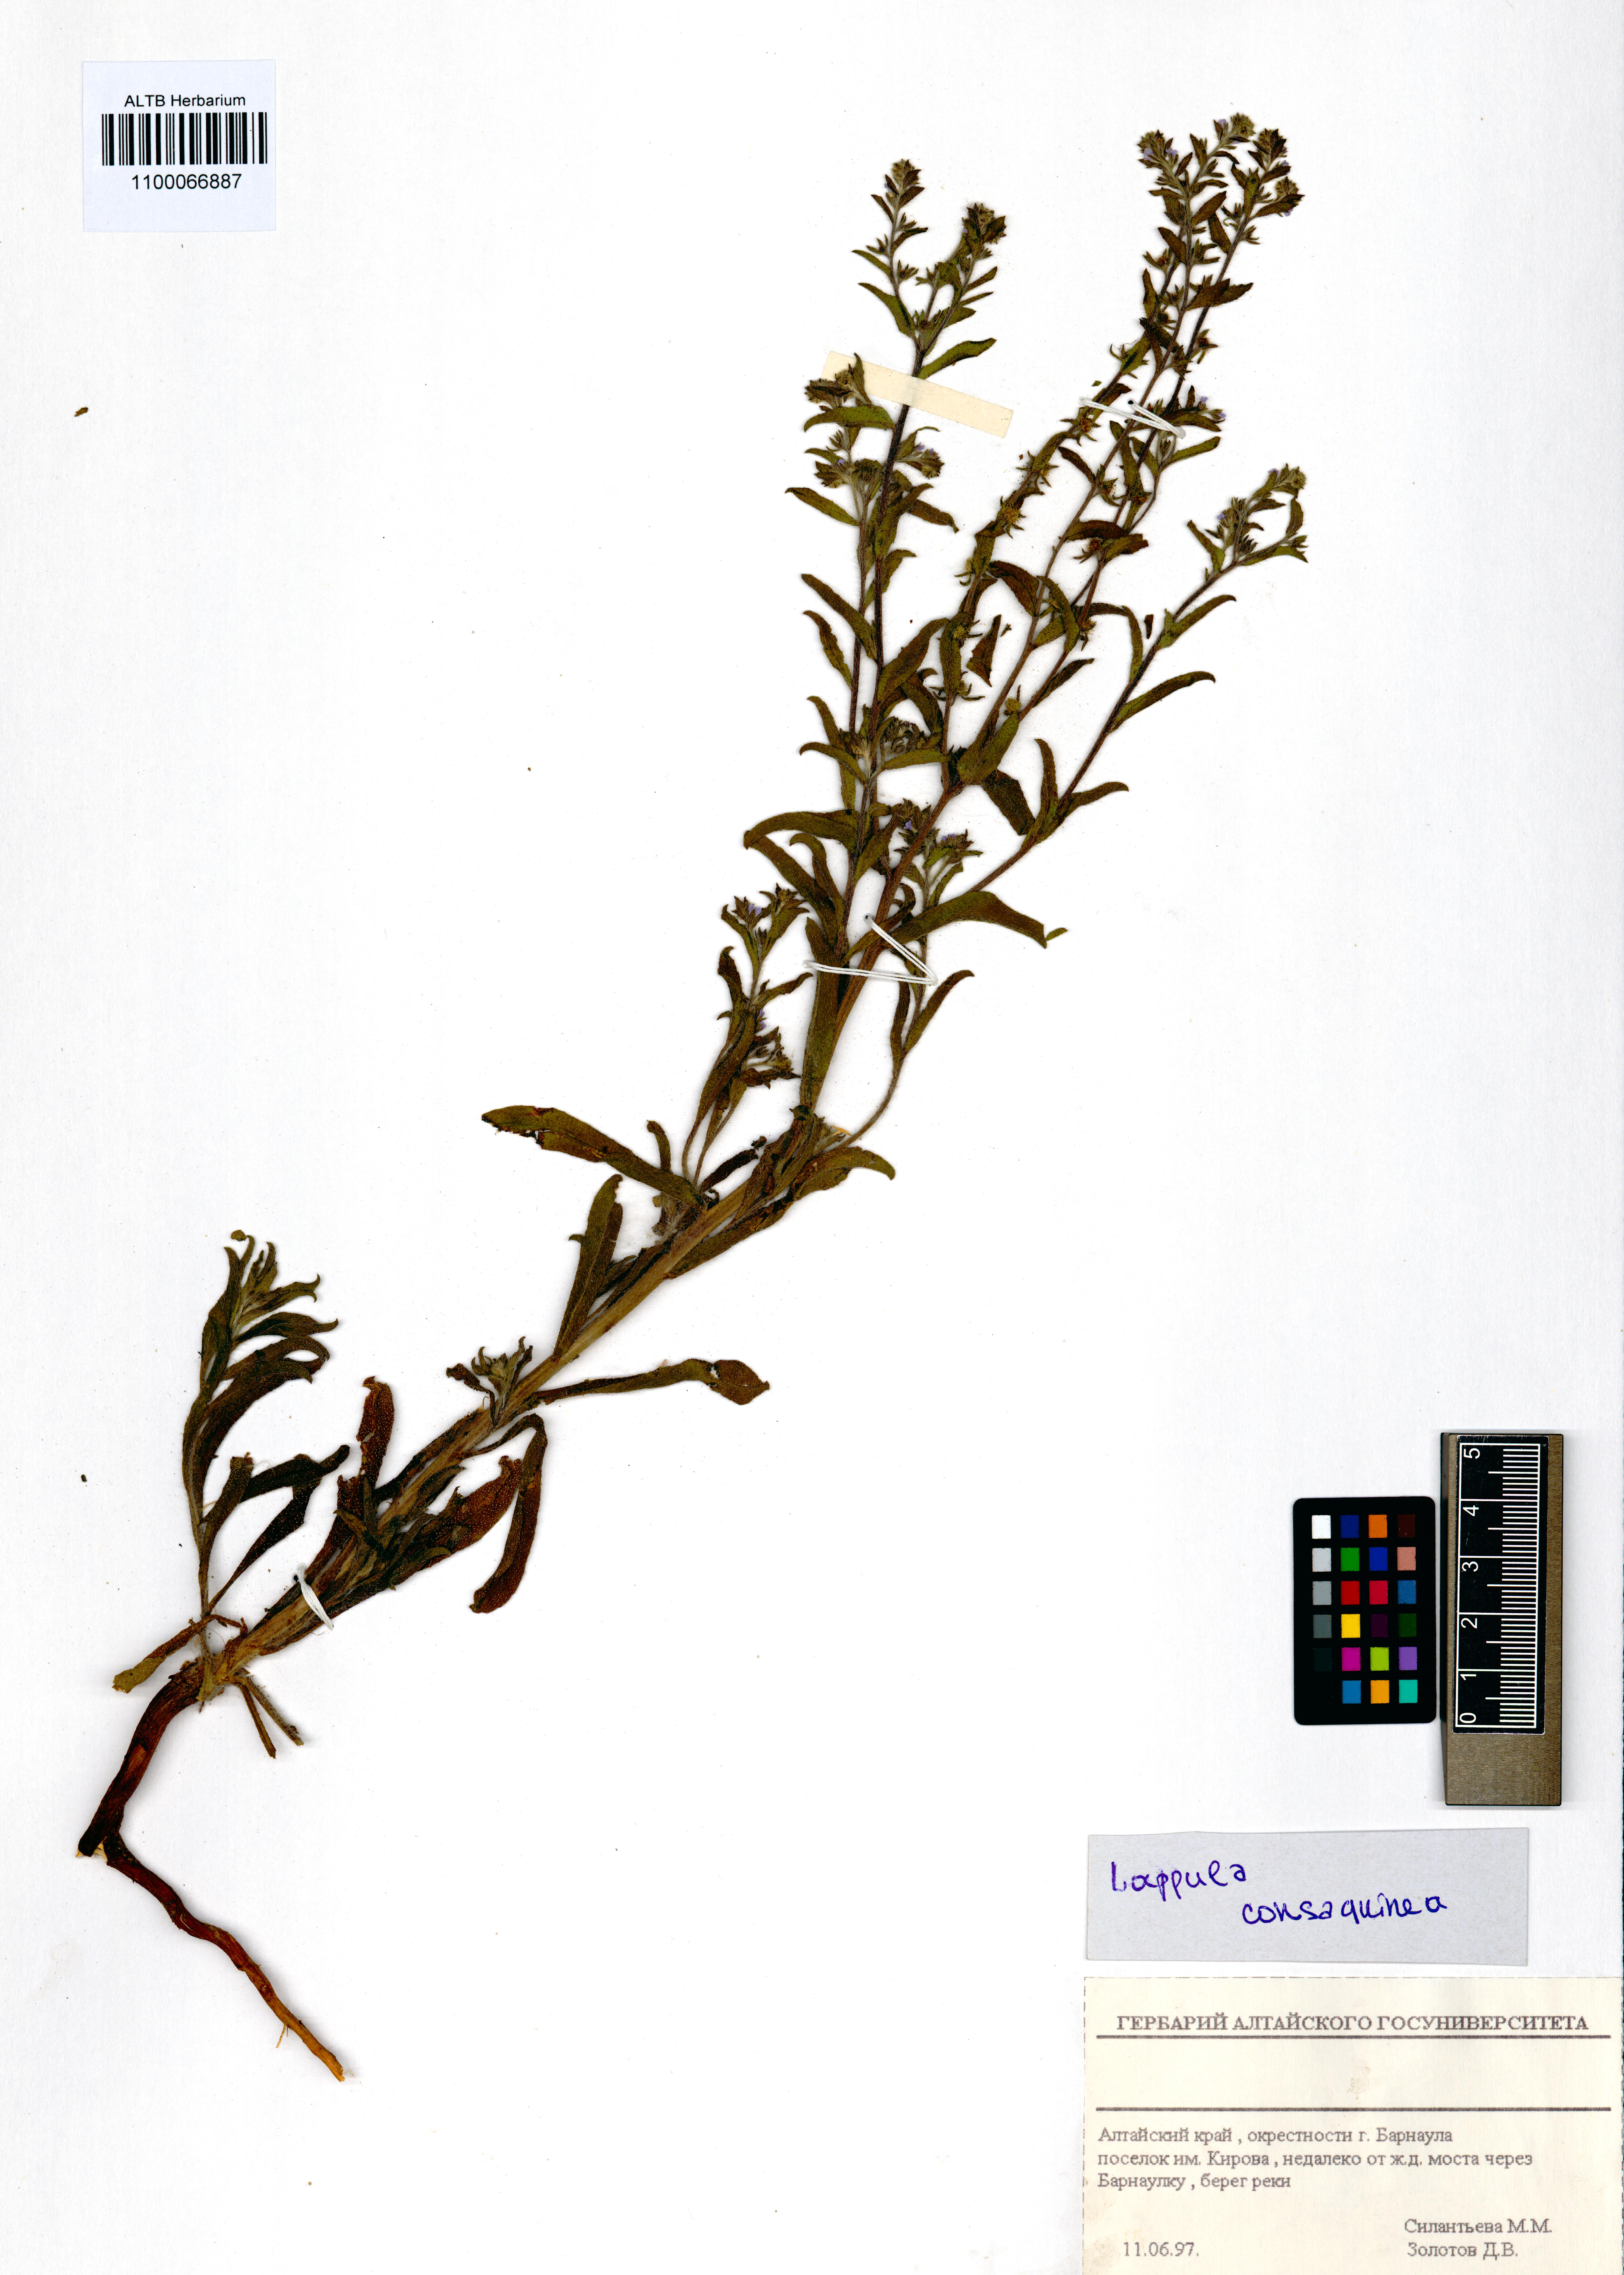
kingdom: Plantae
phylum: Tracheophyta
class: Magnoliopsida
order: Boraginales
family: Boraginaceae
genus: Lappula
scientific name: Lappula squarrosa
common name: European stickseed
